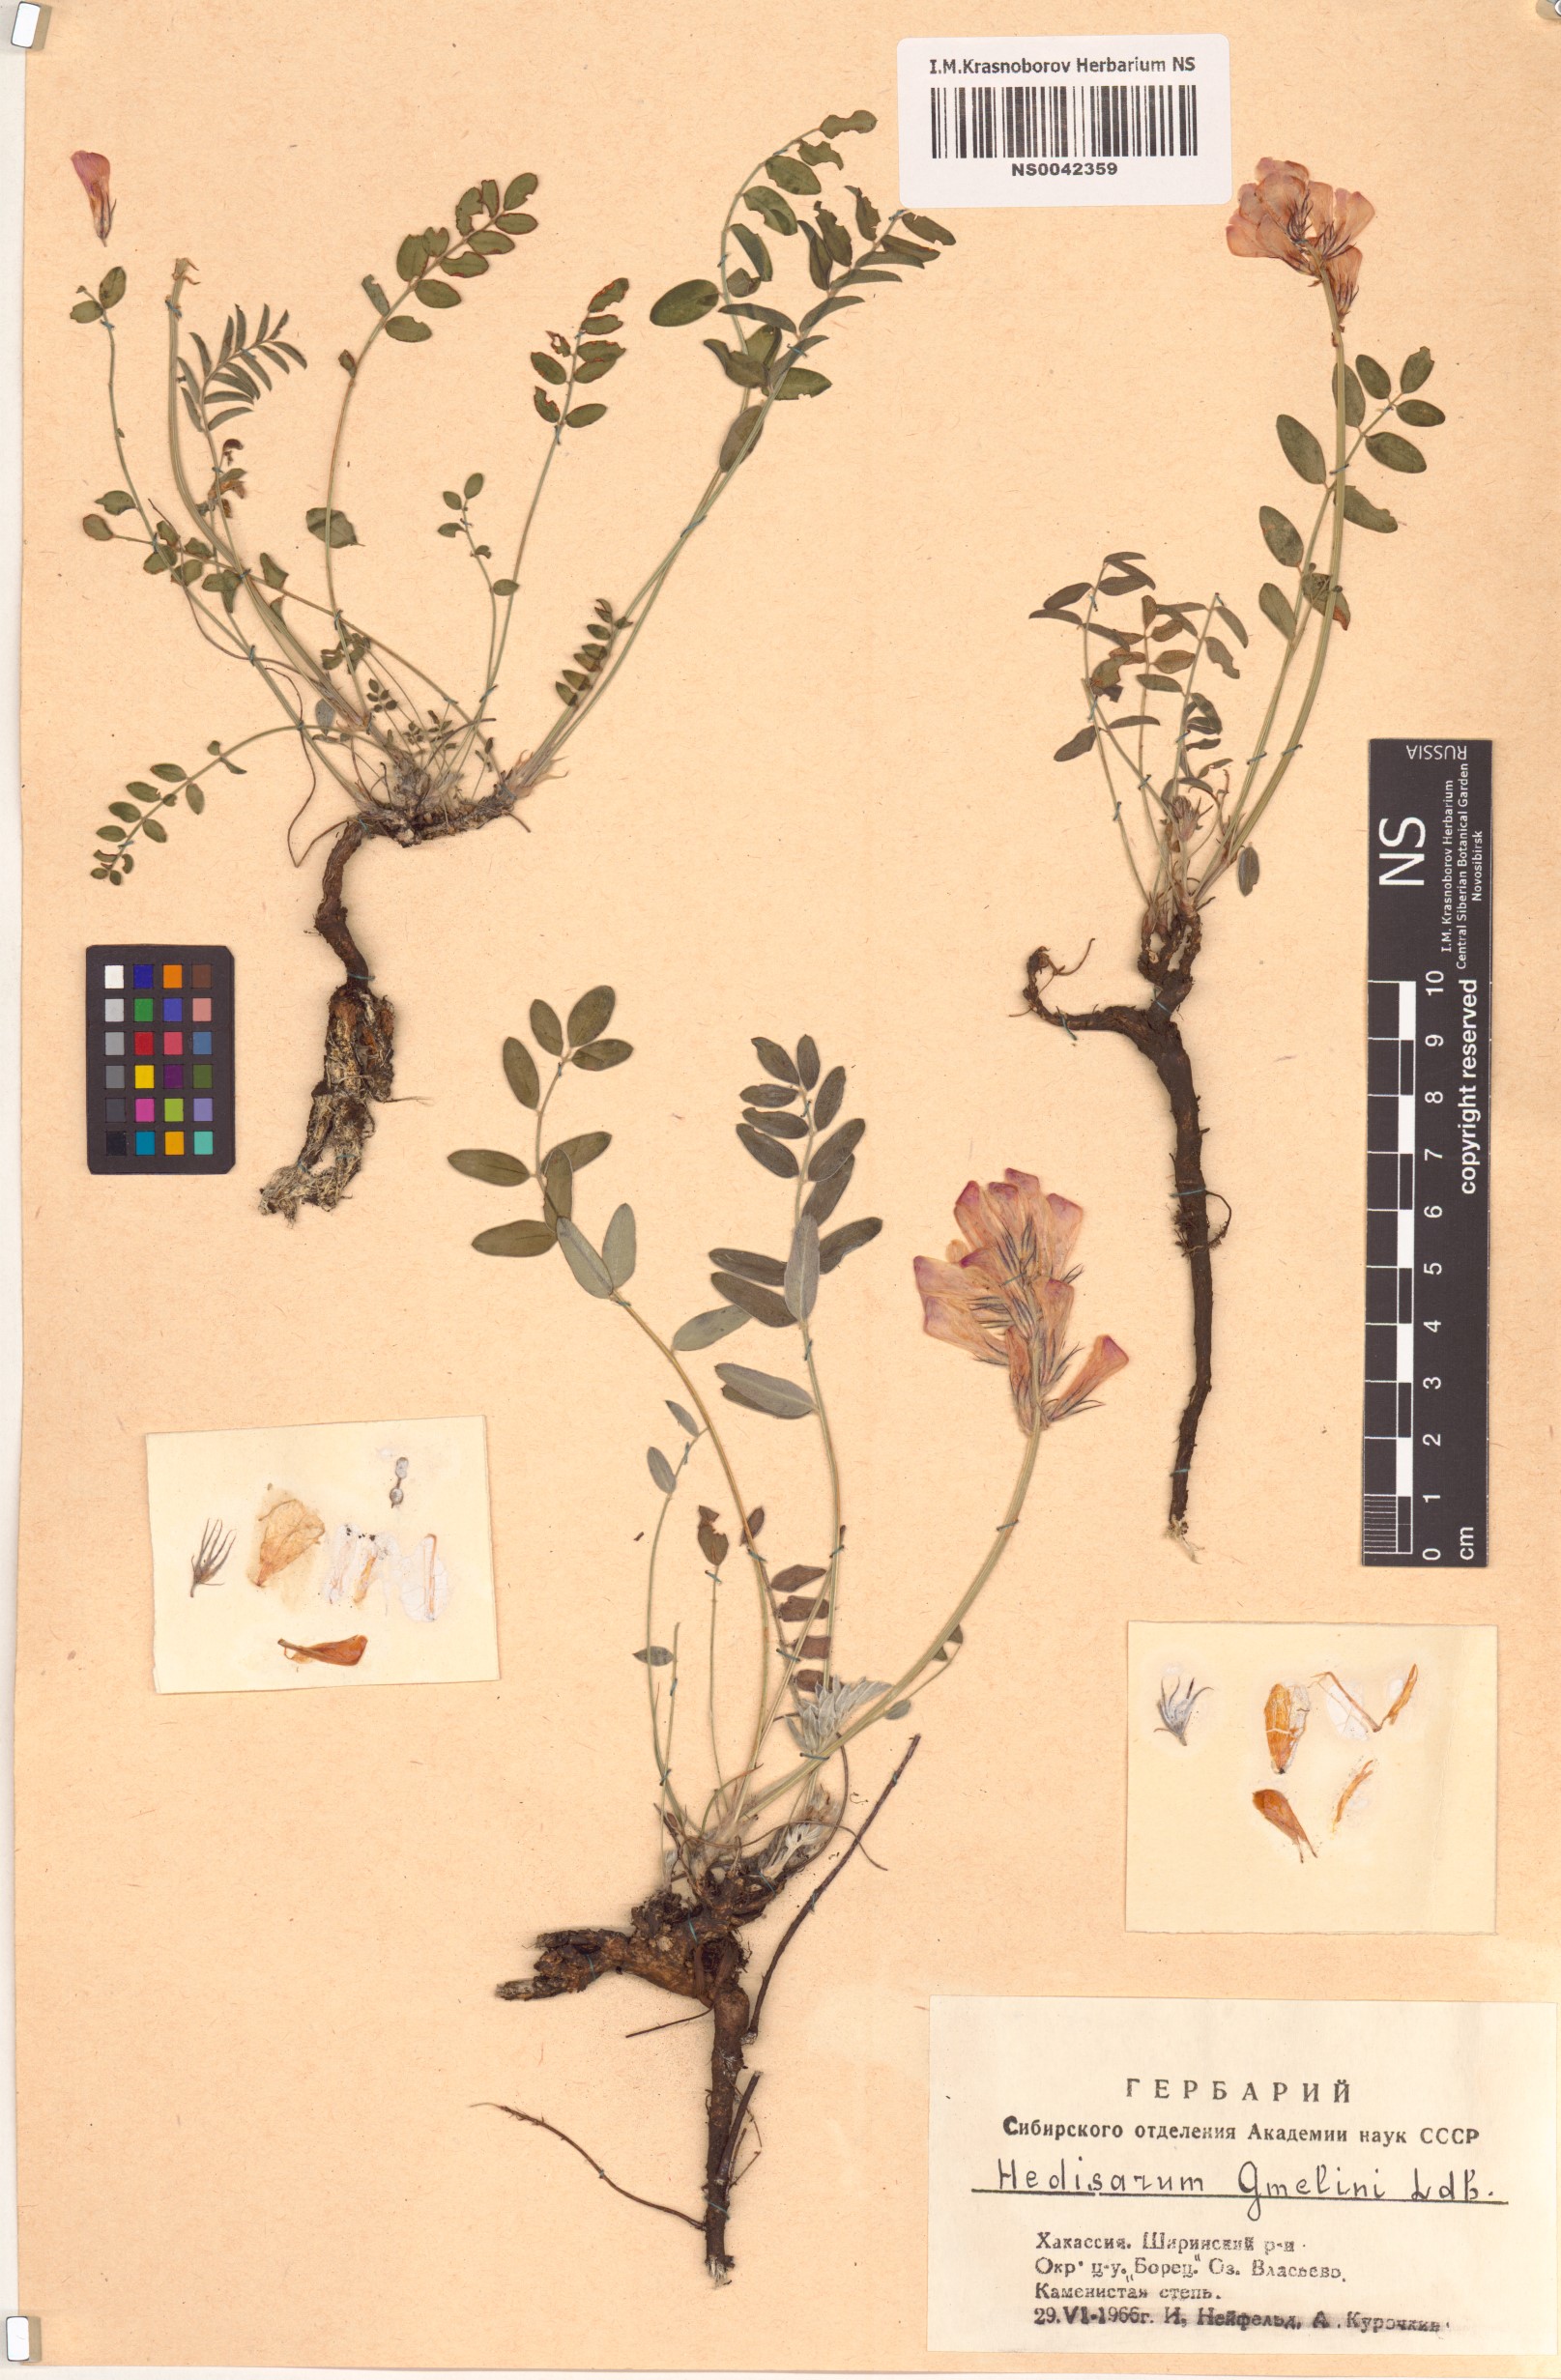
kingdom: Plantae
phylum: Tracheophyta
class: Magnoliopsida
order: Fabales
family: Fabaceae
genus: Hedysarum
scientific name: Hedysarum gmelinii
